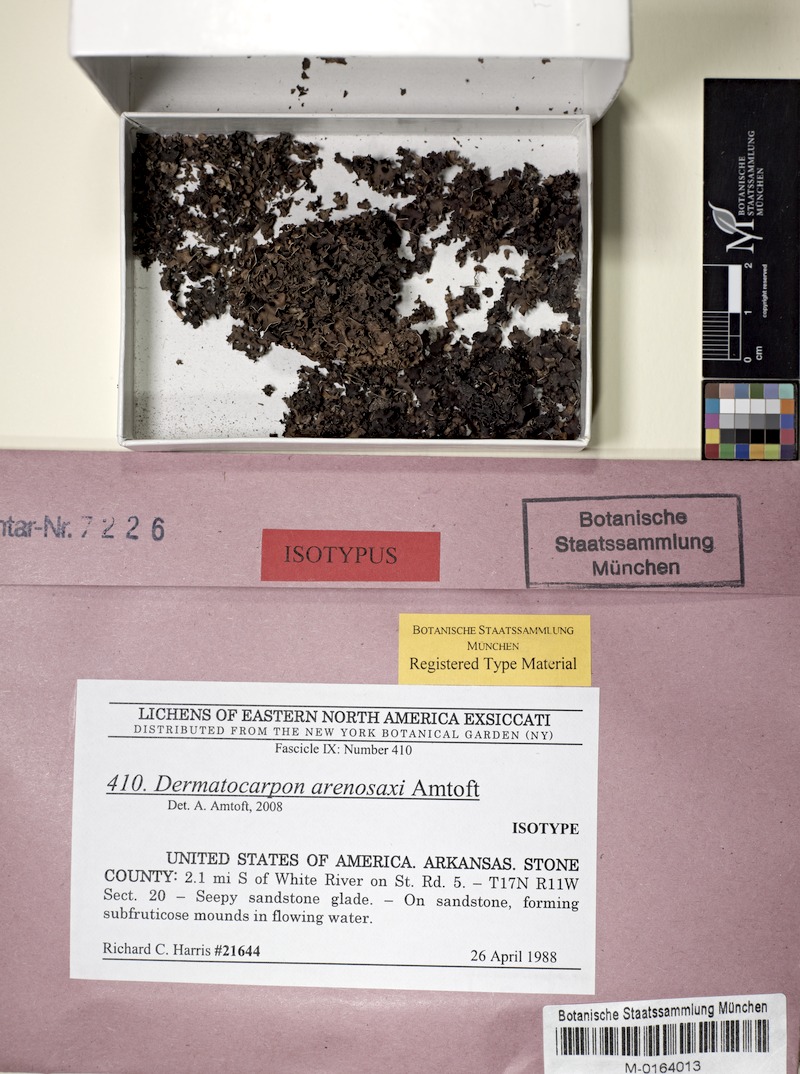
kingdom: Fungi
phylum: Ascomycota
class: Eurotiomycetes
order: Verrucariales
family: Verrucariaceae
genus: Dermatocarpon
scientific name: Dermatocarpon arenosaxi
